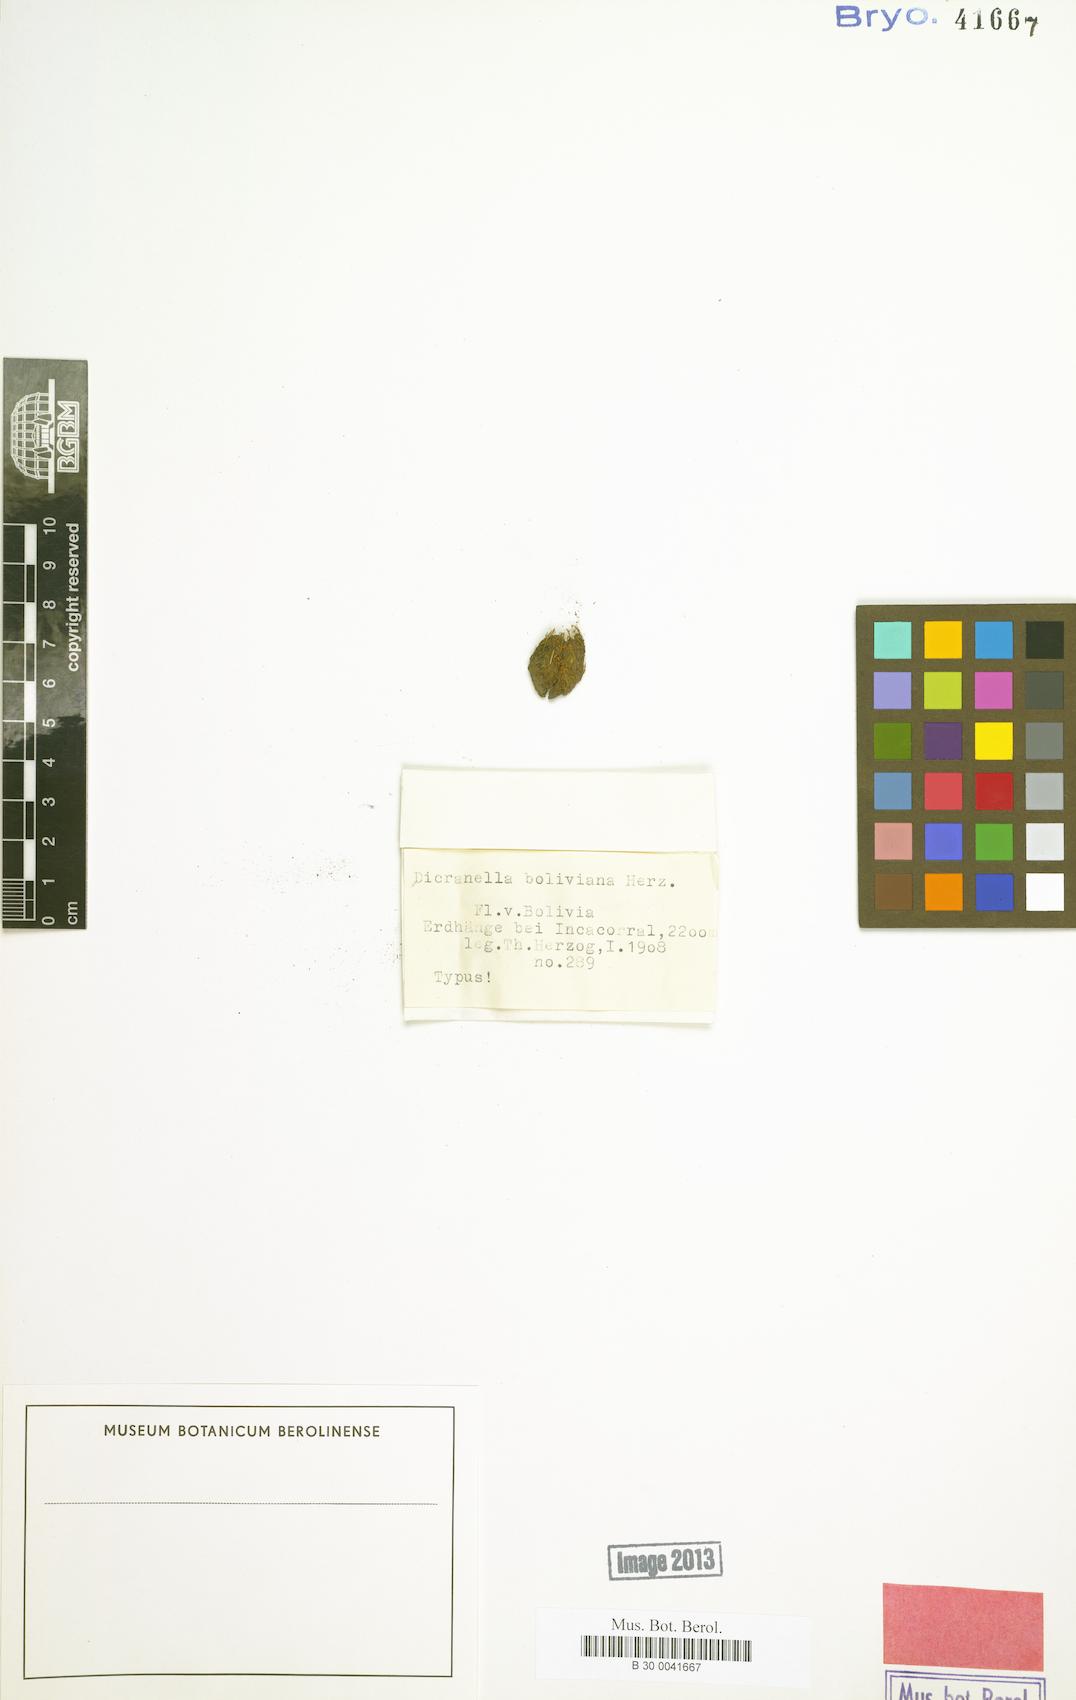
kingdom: Plantae
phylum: Bryophyta
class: Bryopsida
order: Dicranales
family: Dicranellaceae
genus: Dicranella
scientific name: Dicranella boliviana
